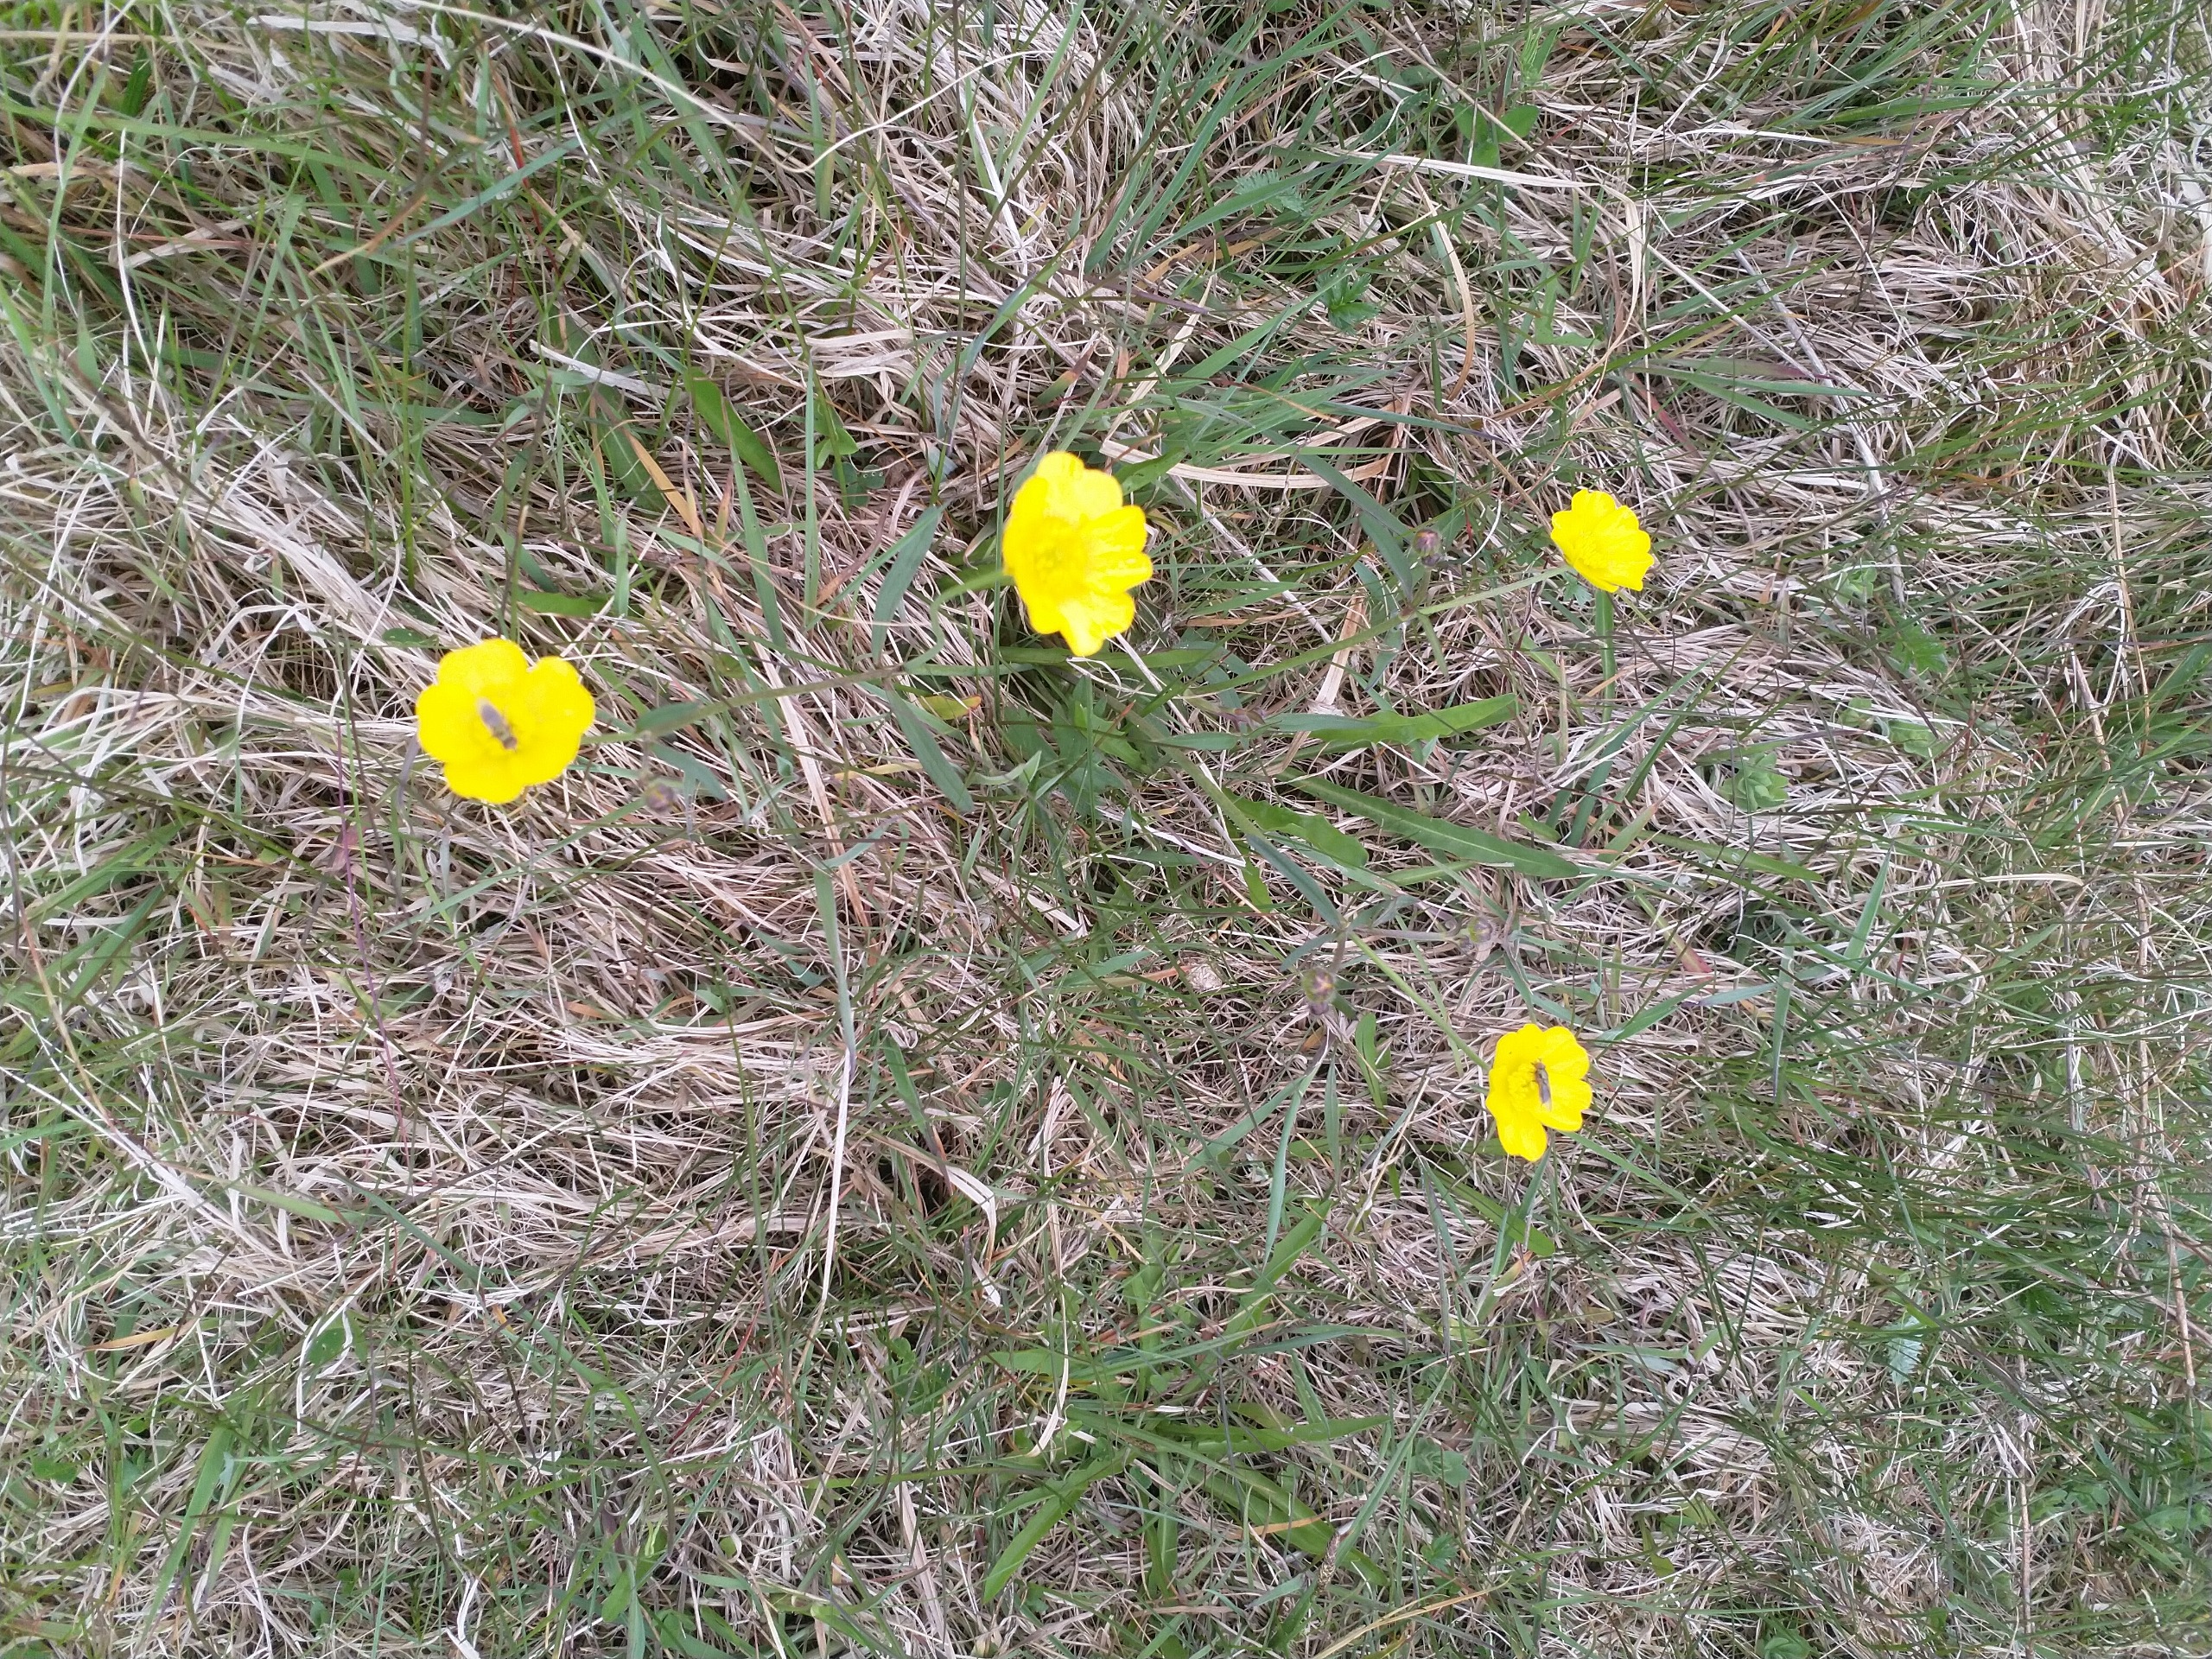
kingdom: Plantae
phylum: Tracheophyta
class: Magnoliopsida
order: Ranunculales
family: Ranunculaceae
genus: Ranunculus
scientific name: Ranunculus
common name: Ranunkelslægten
